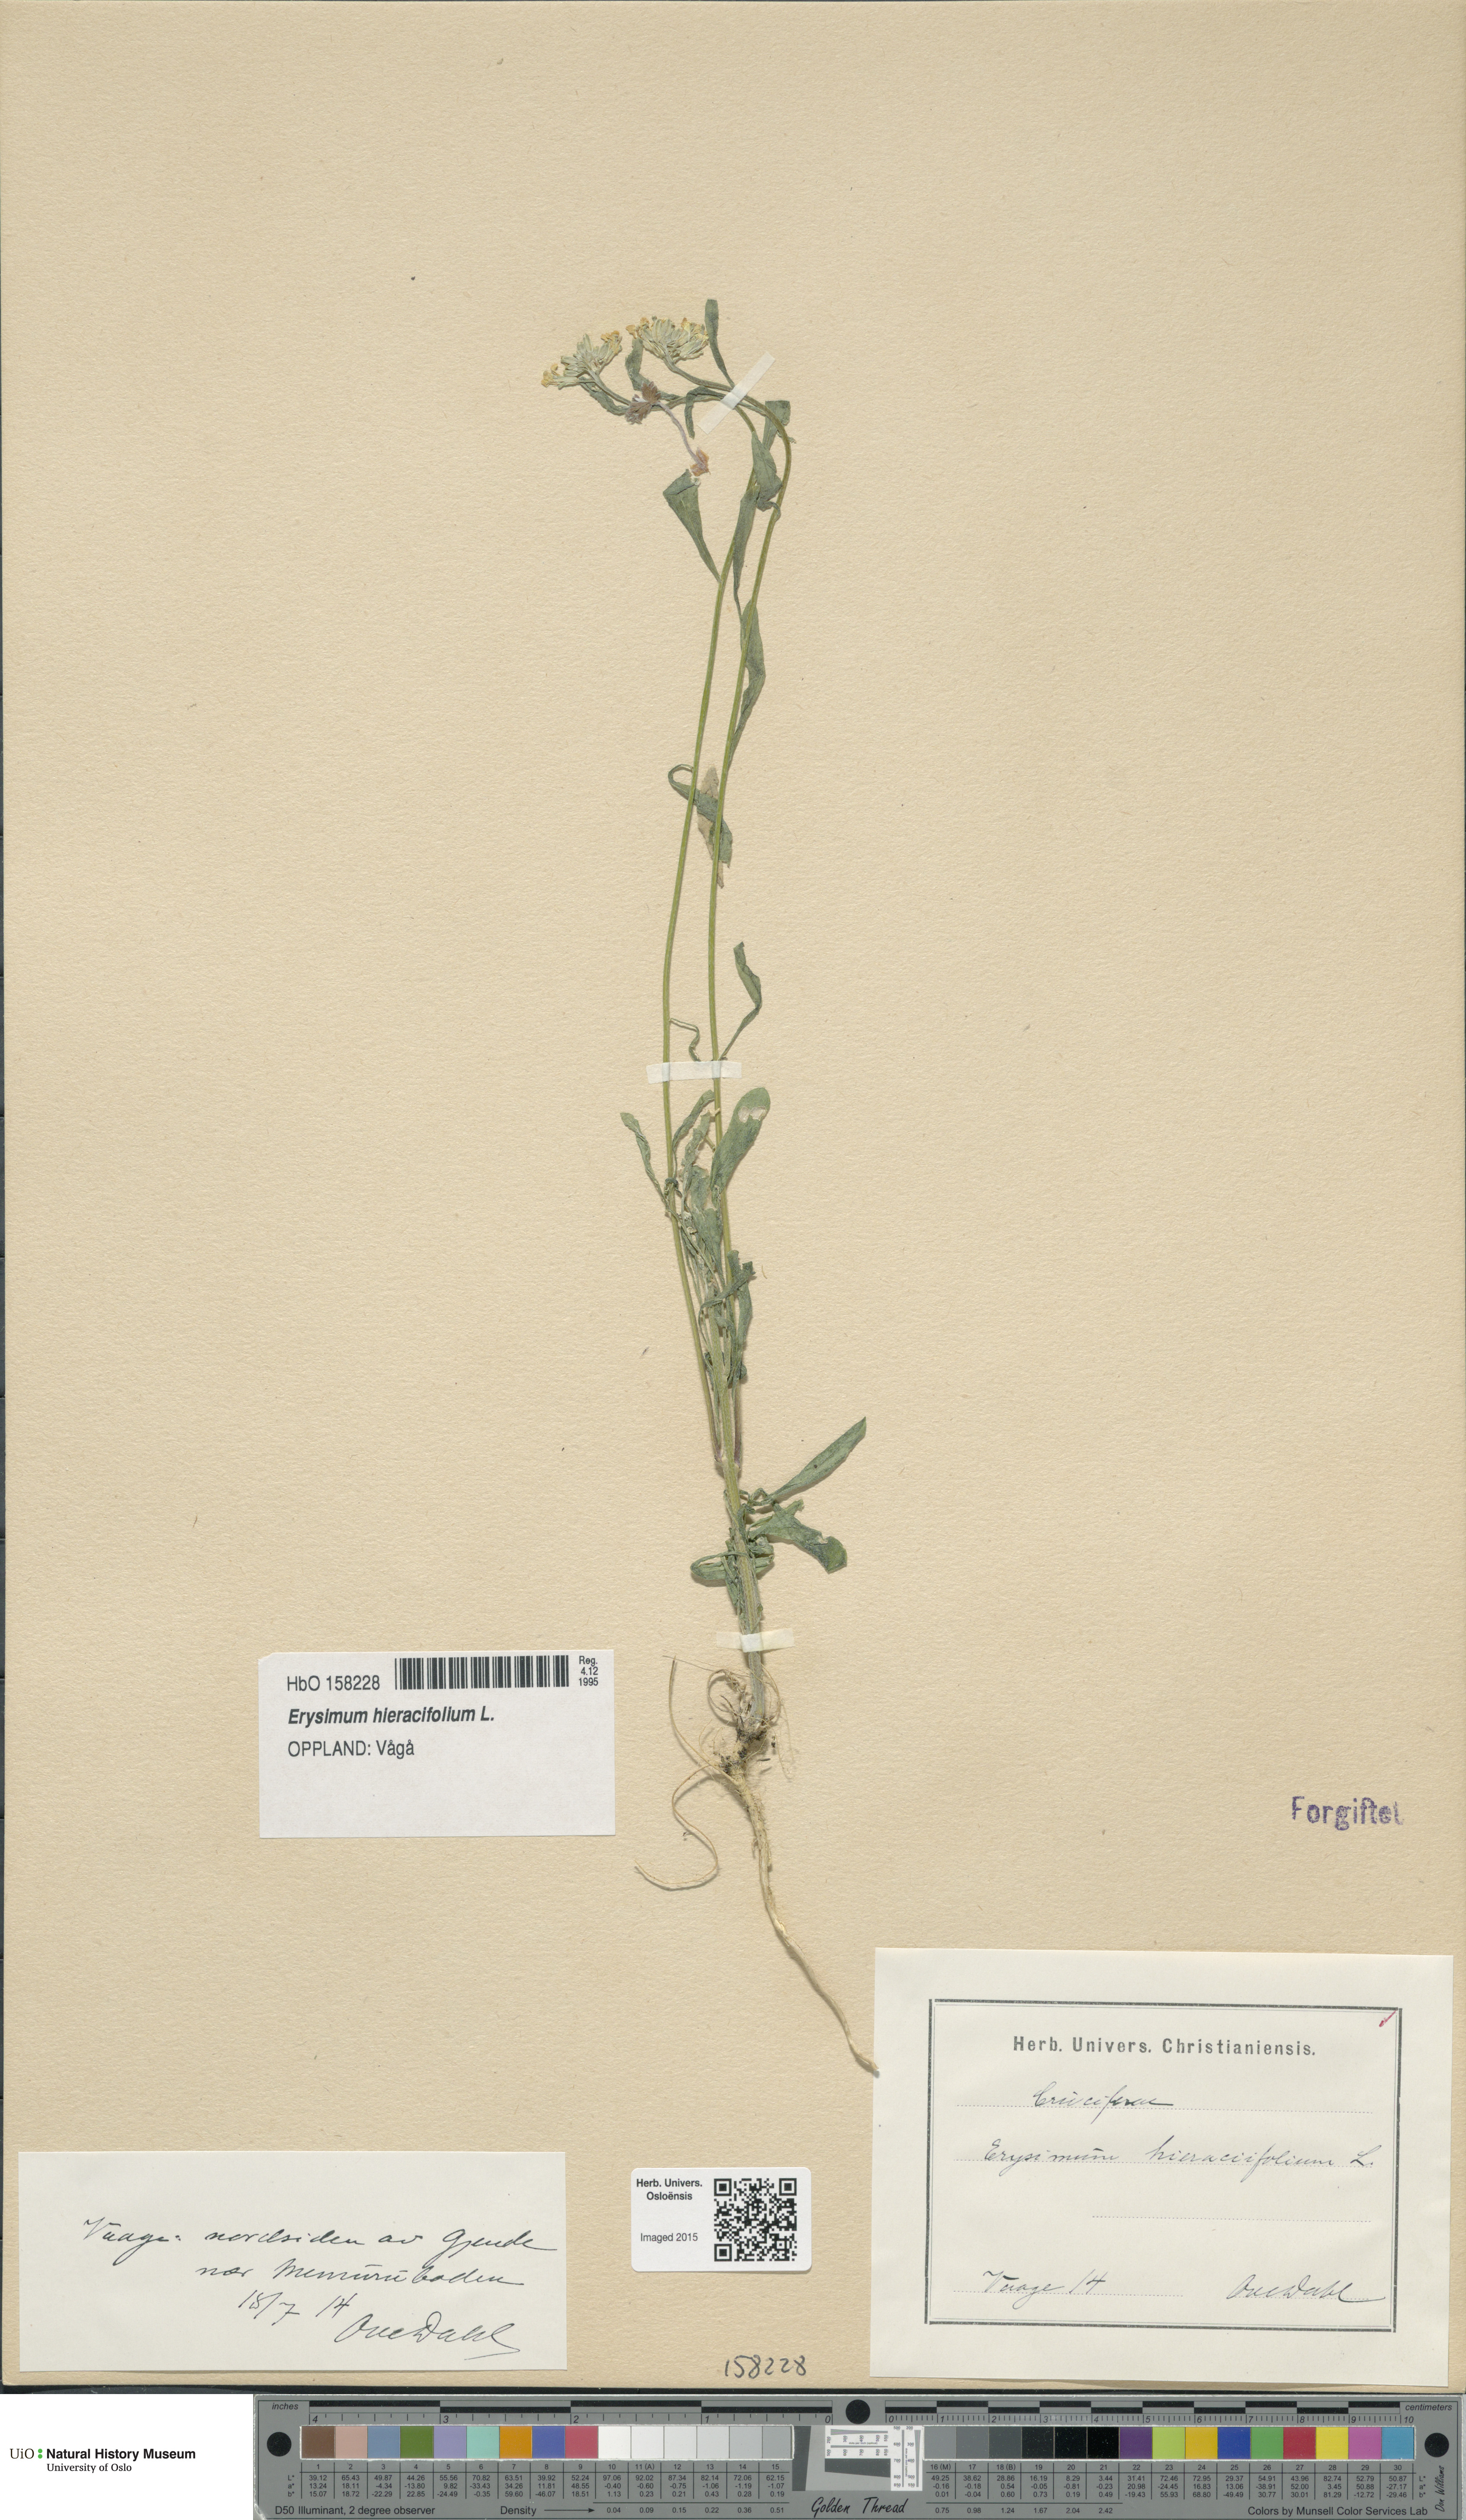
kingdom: Plantae
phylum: Tracheophyta
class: Magnoliopsida
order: Brassicales
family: Brassicaceae
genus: Erysimum
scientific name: Erysimum virgatum
